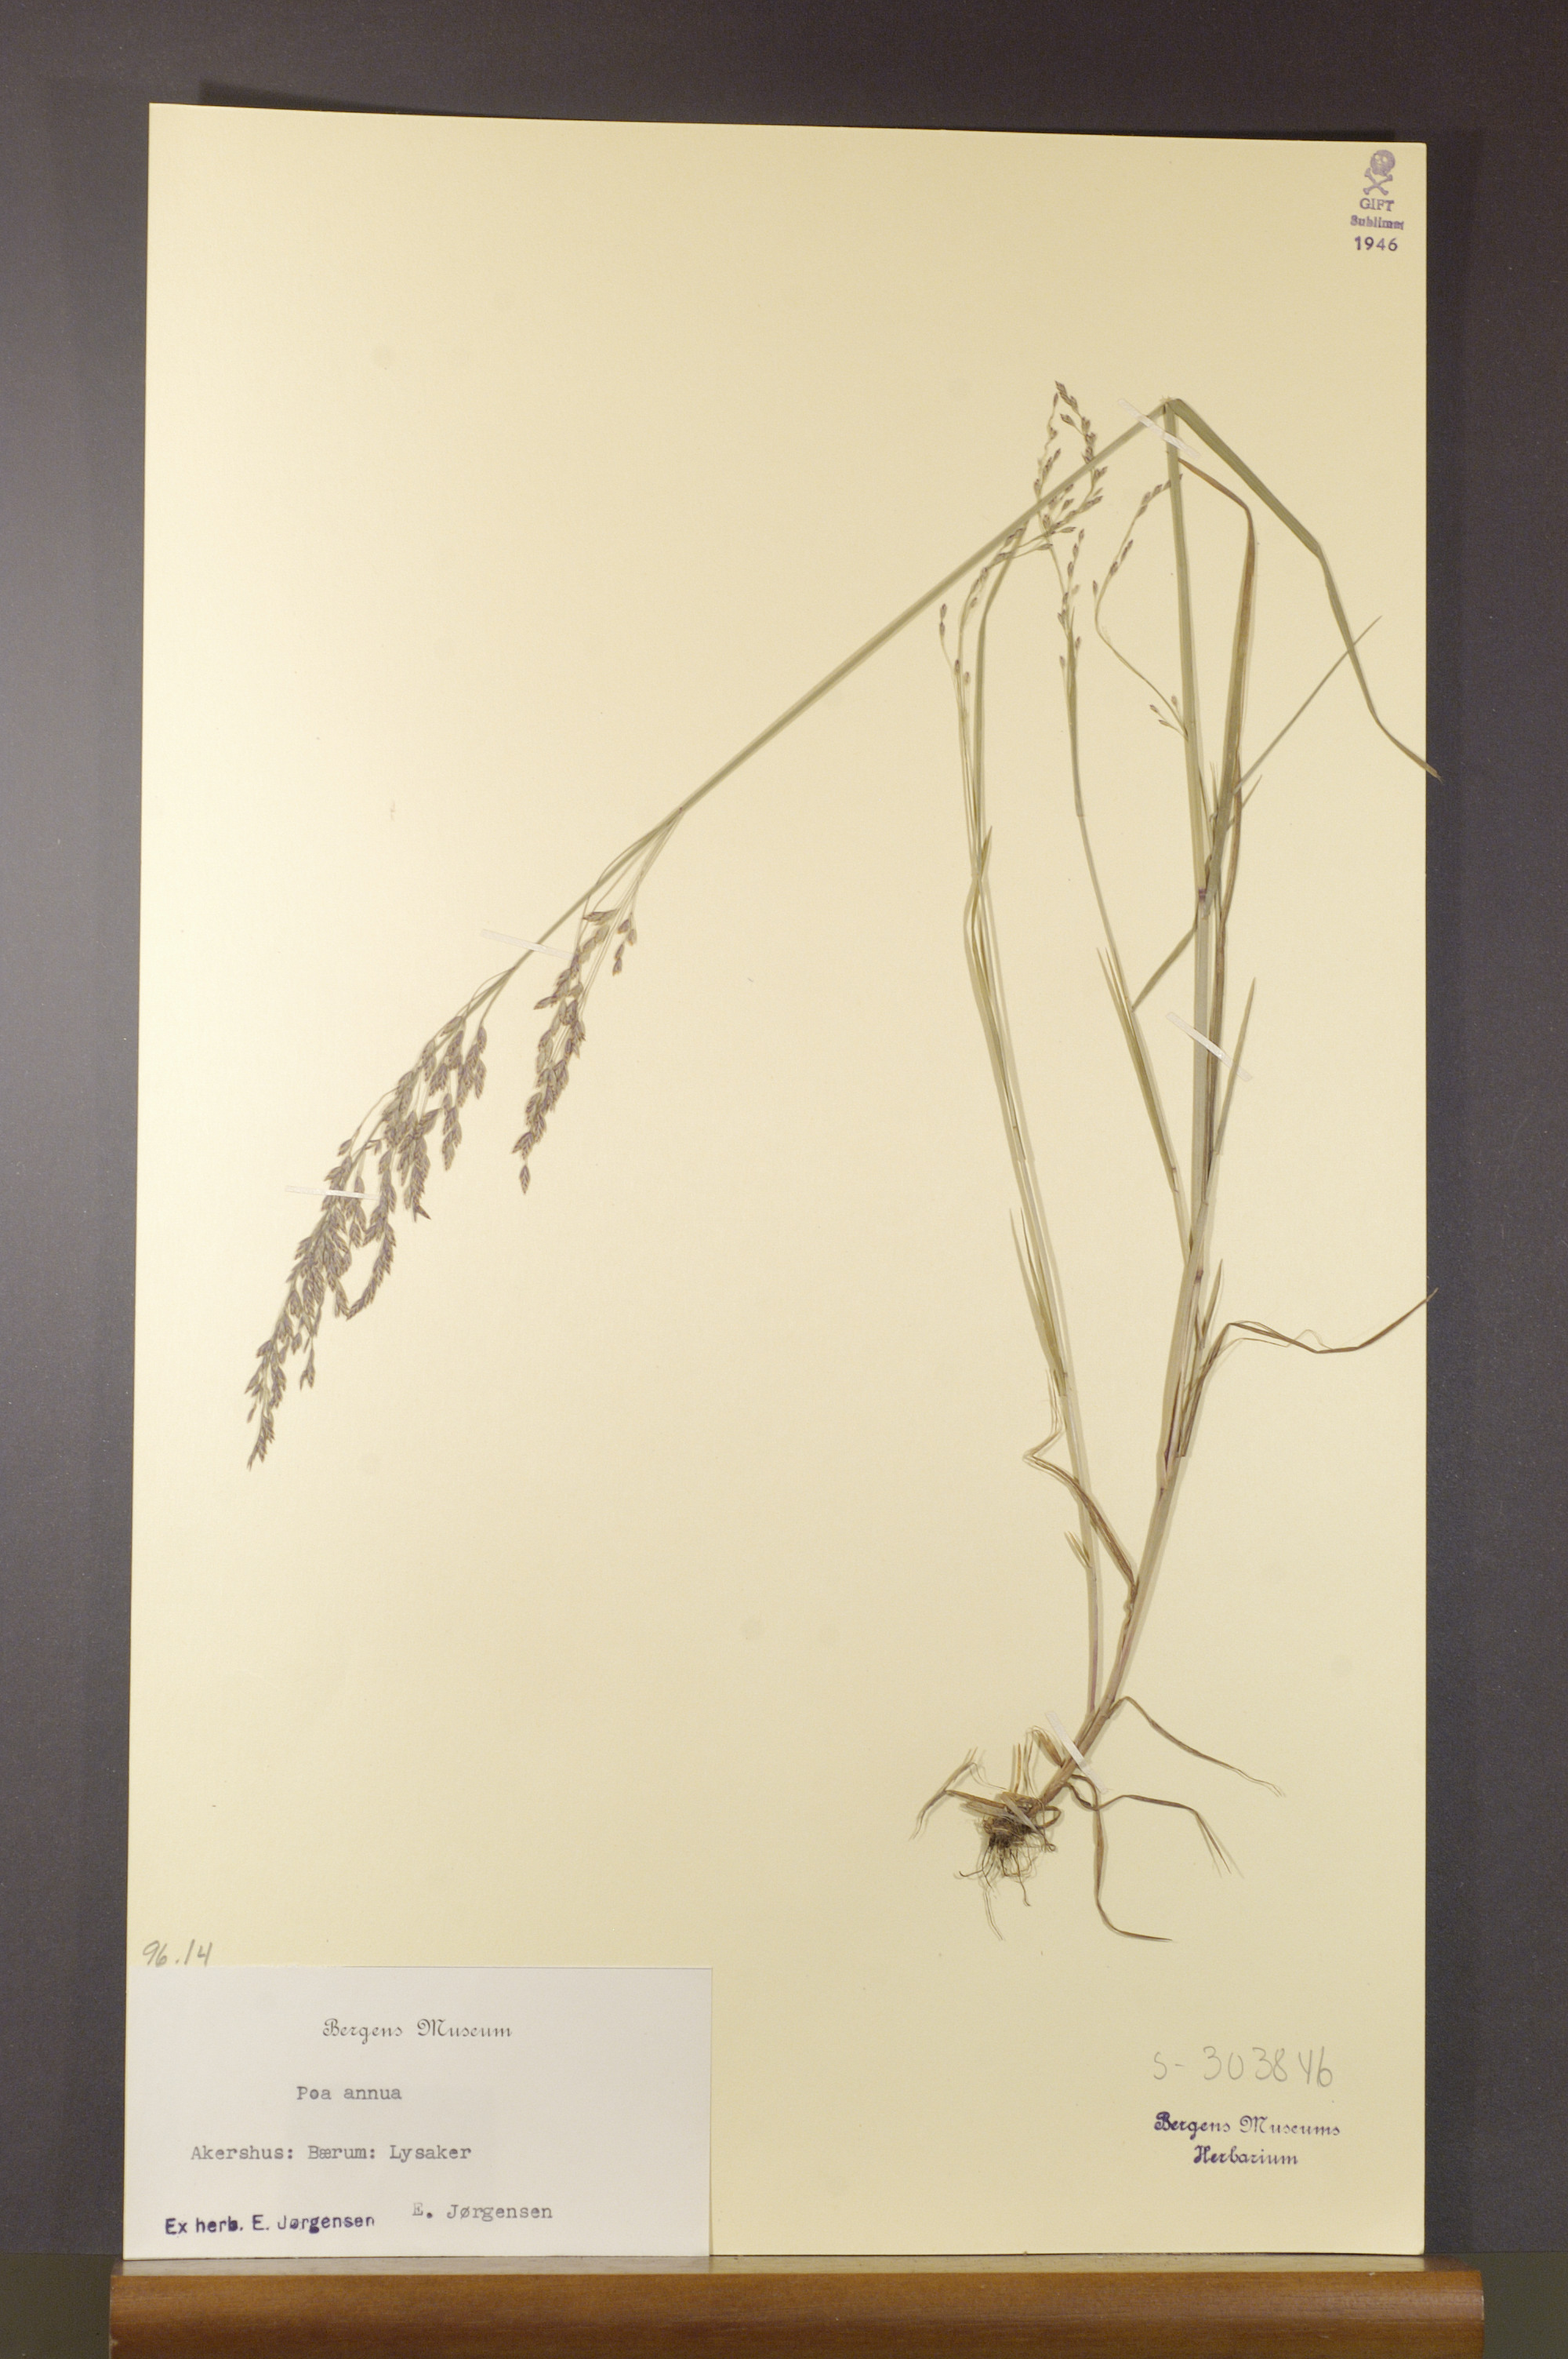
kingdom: Plantae
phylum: Tracheophyta
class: Liliopsida
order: Poales
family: Poaceae
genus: Poa
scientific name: Poa annua
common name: Annual bluegrass
